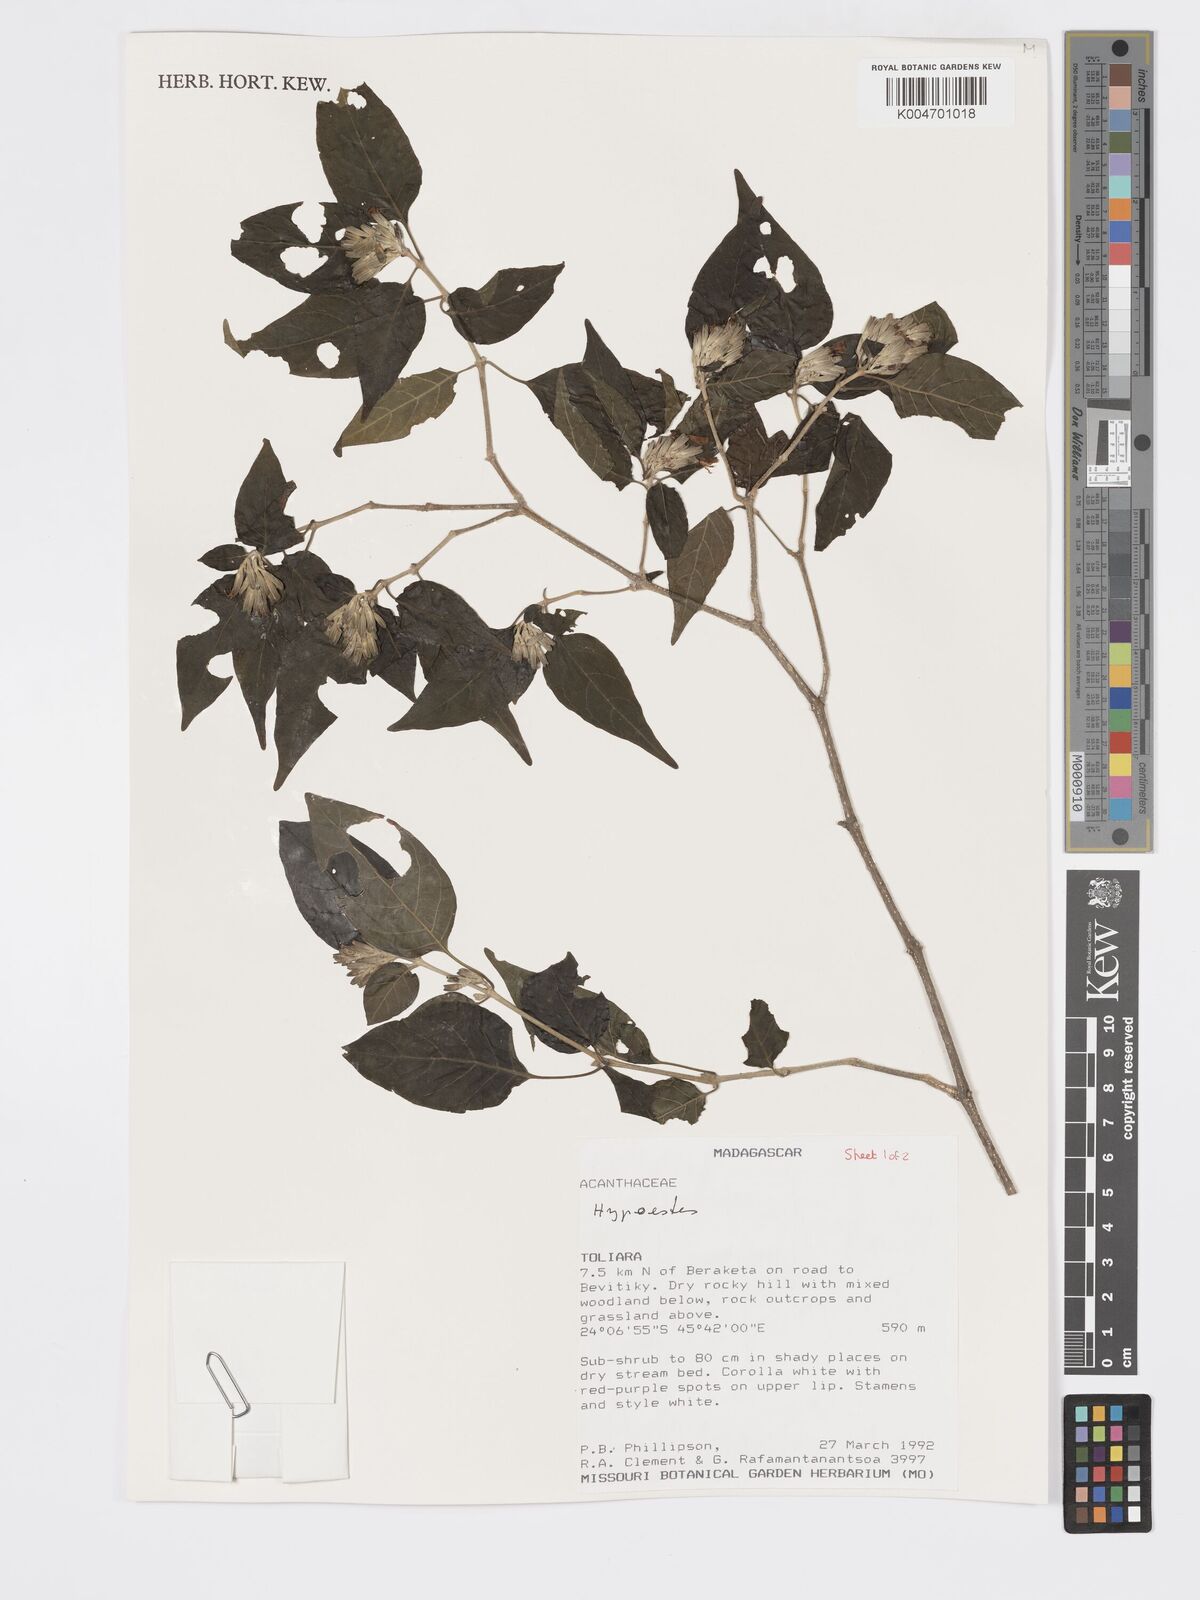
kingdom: Plantae
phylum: Tracheophyta
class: Magnoliopsida
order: Lamiales
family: Acanthaceae
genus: Hypoestes
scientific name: Hypoestes
